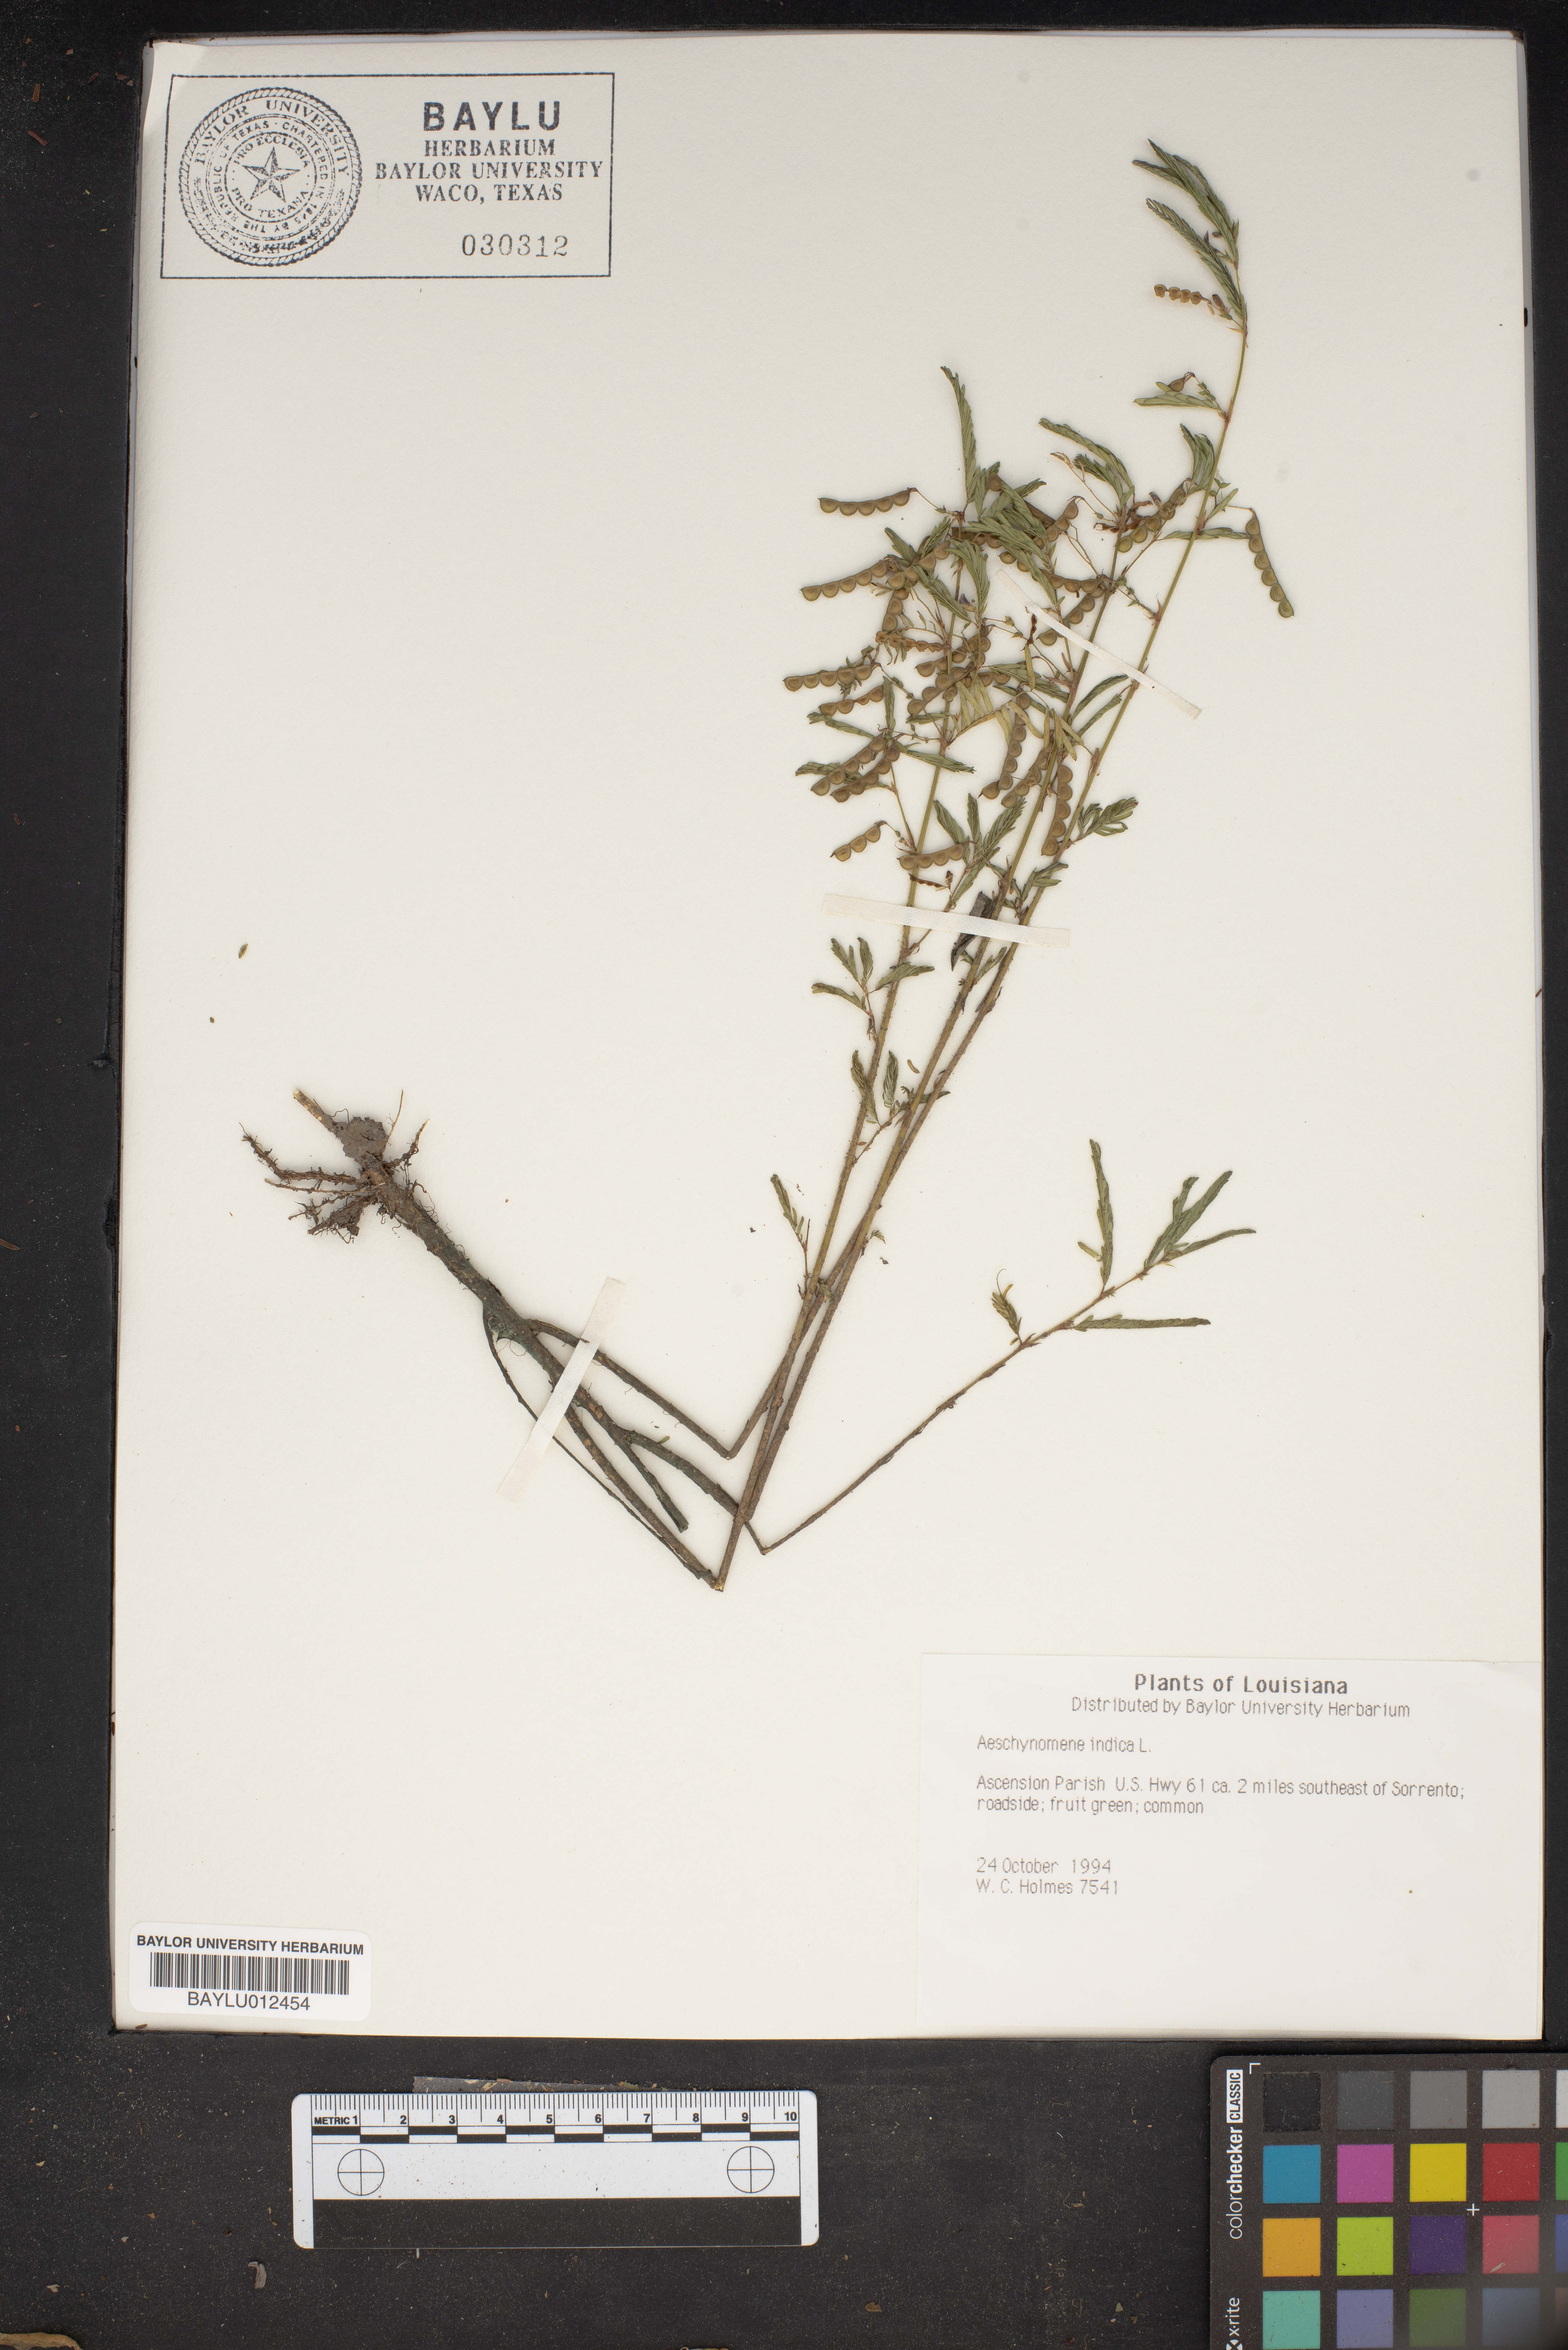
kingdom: Plantae
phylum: Tracheophyta
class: Magnoliopsida
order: Fabales
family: Fabaceae
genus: Aeschynomene
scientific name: Aeschynomene indica
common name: Indian jointvetch
